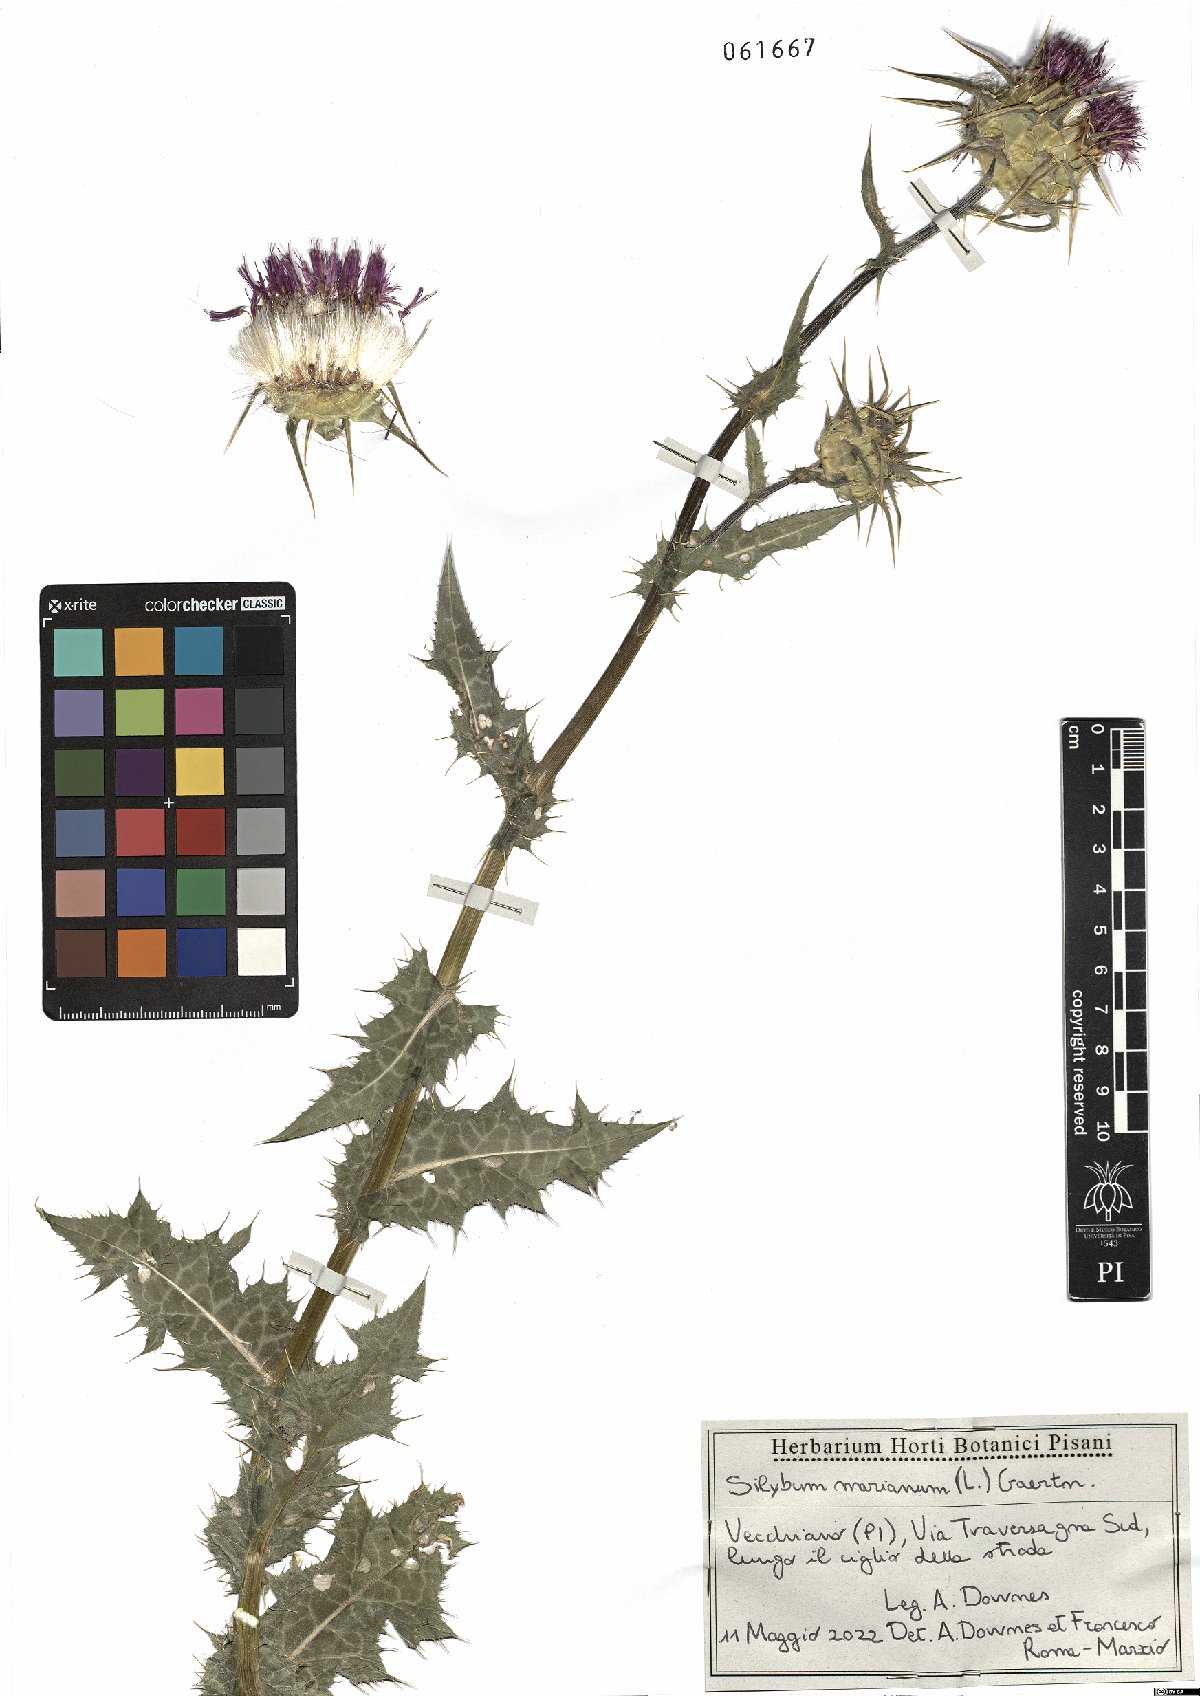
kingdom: Plantae
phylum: Tracheophyta
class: Magnoliopsida
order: Asterales
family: Asteraceae
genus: Silybum
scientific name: Silybum marianum
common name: Milk thistle
